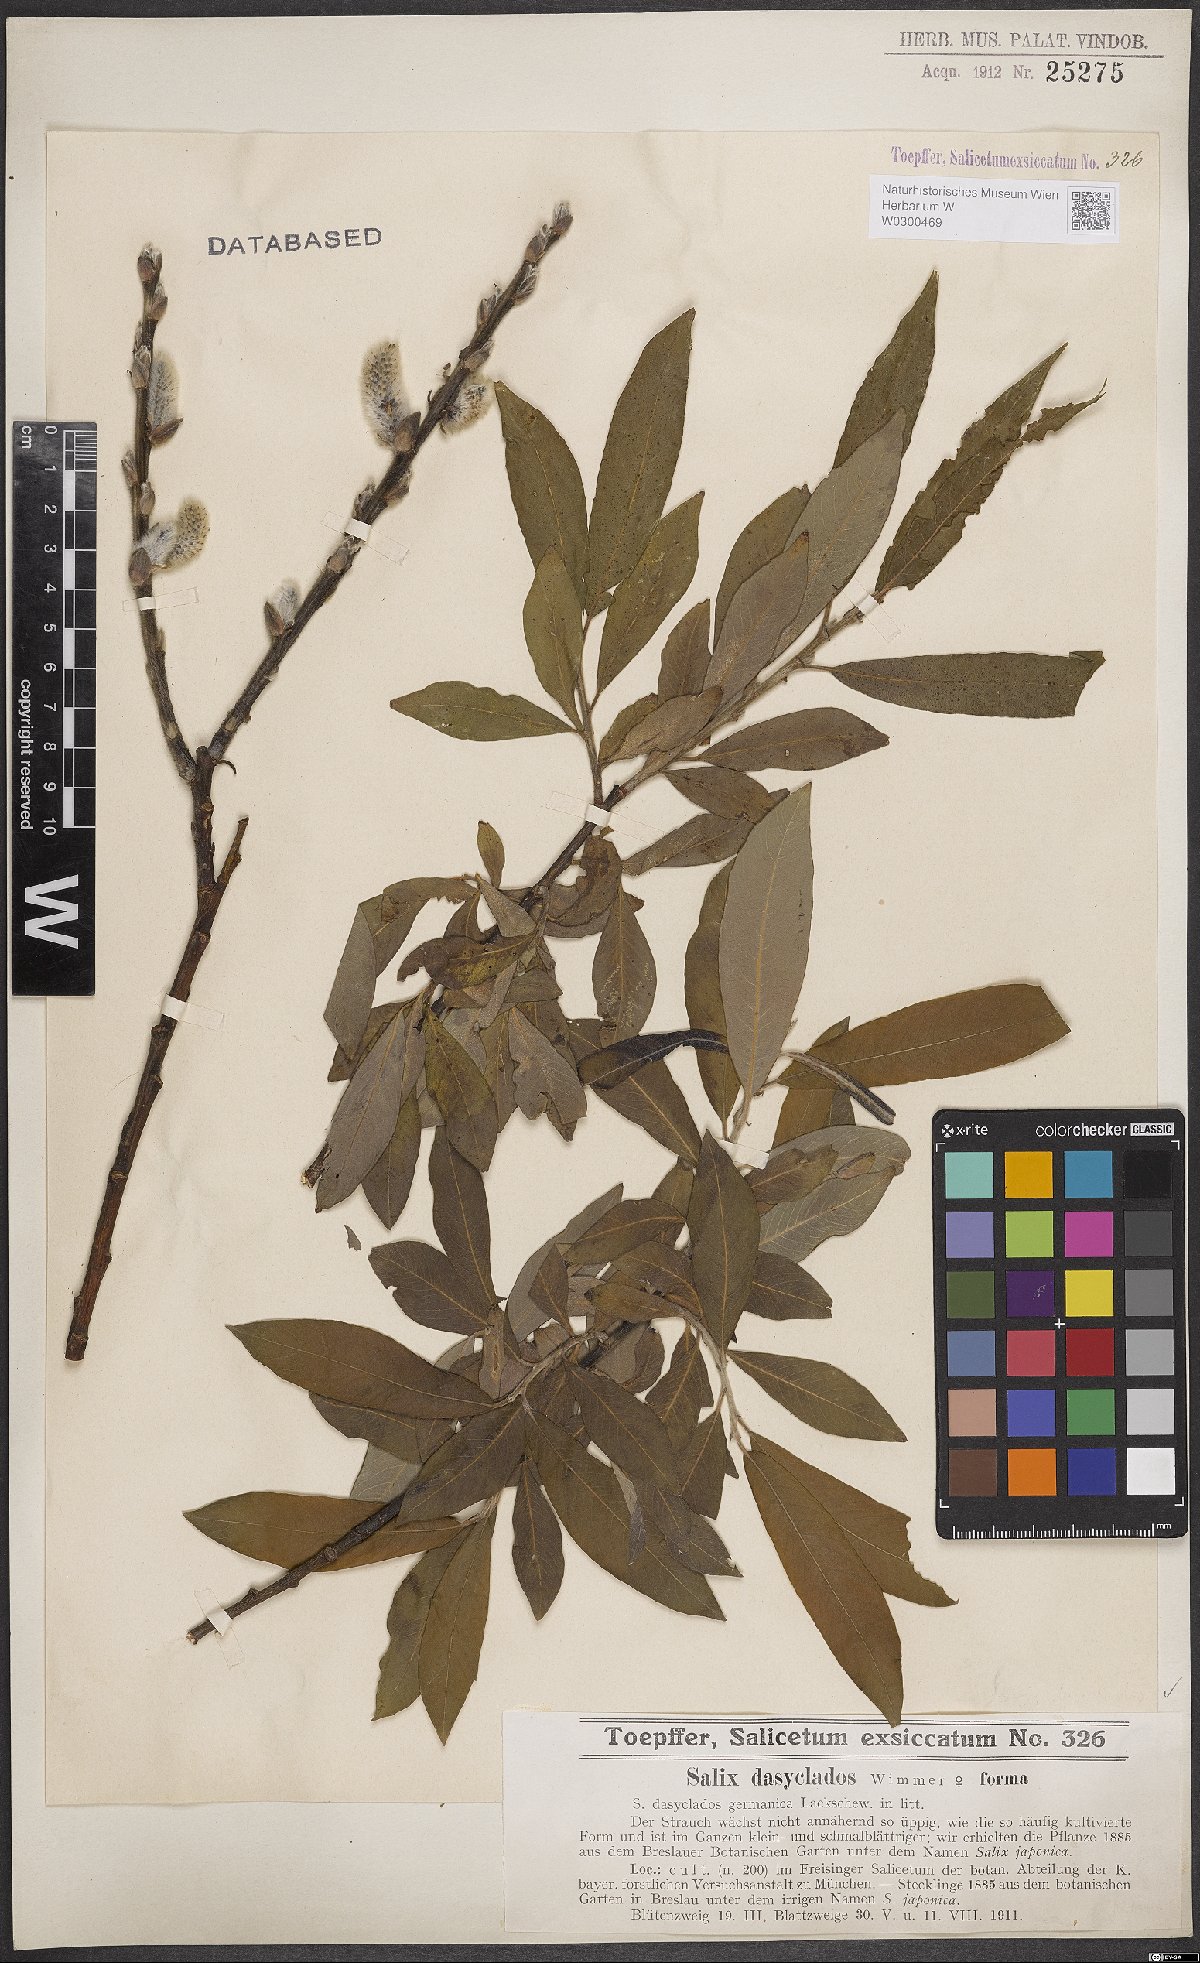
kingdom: Plantae
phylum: Tracheophyta
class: Magnoliopsida
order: Malpighiales
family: Salicaceae
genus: Salix
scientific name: Salix gmelinii
